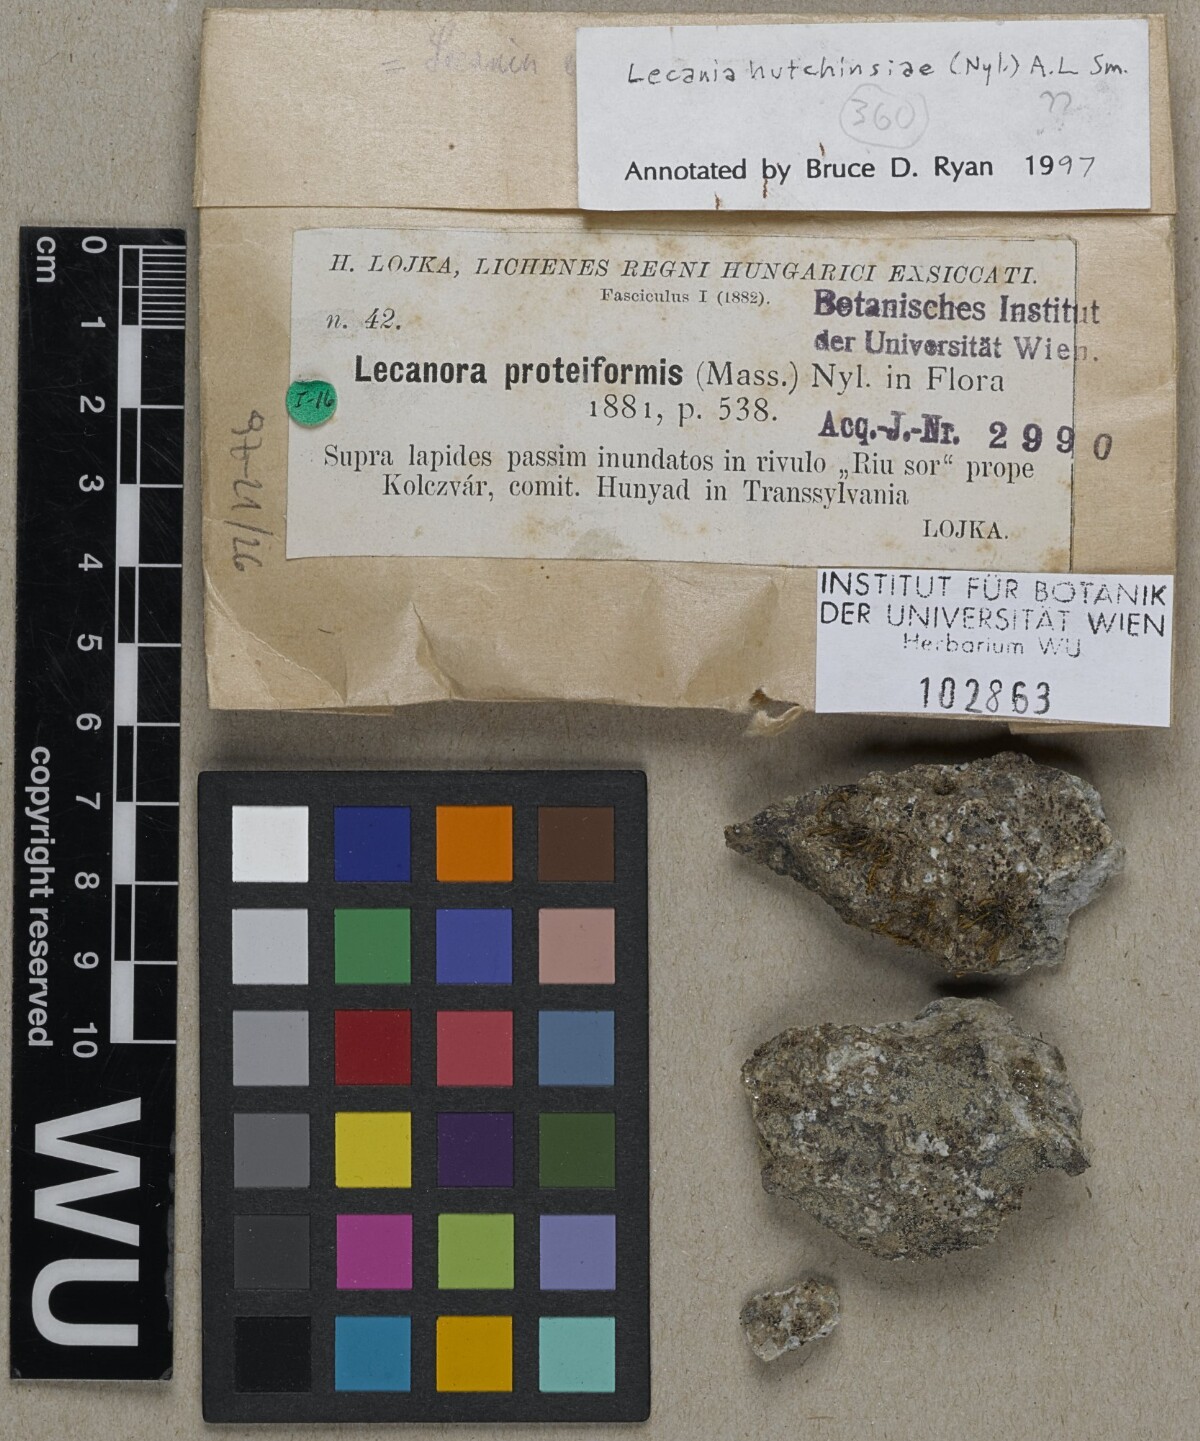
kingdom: Fungi
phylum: Ascomycota
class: Lecanoromycetes
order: Lecanorales
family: Ramalinaceae
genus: Lecania
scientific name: Lecania hutchinsiae
